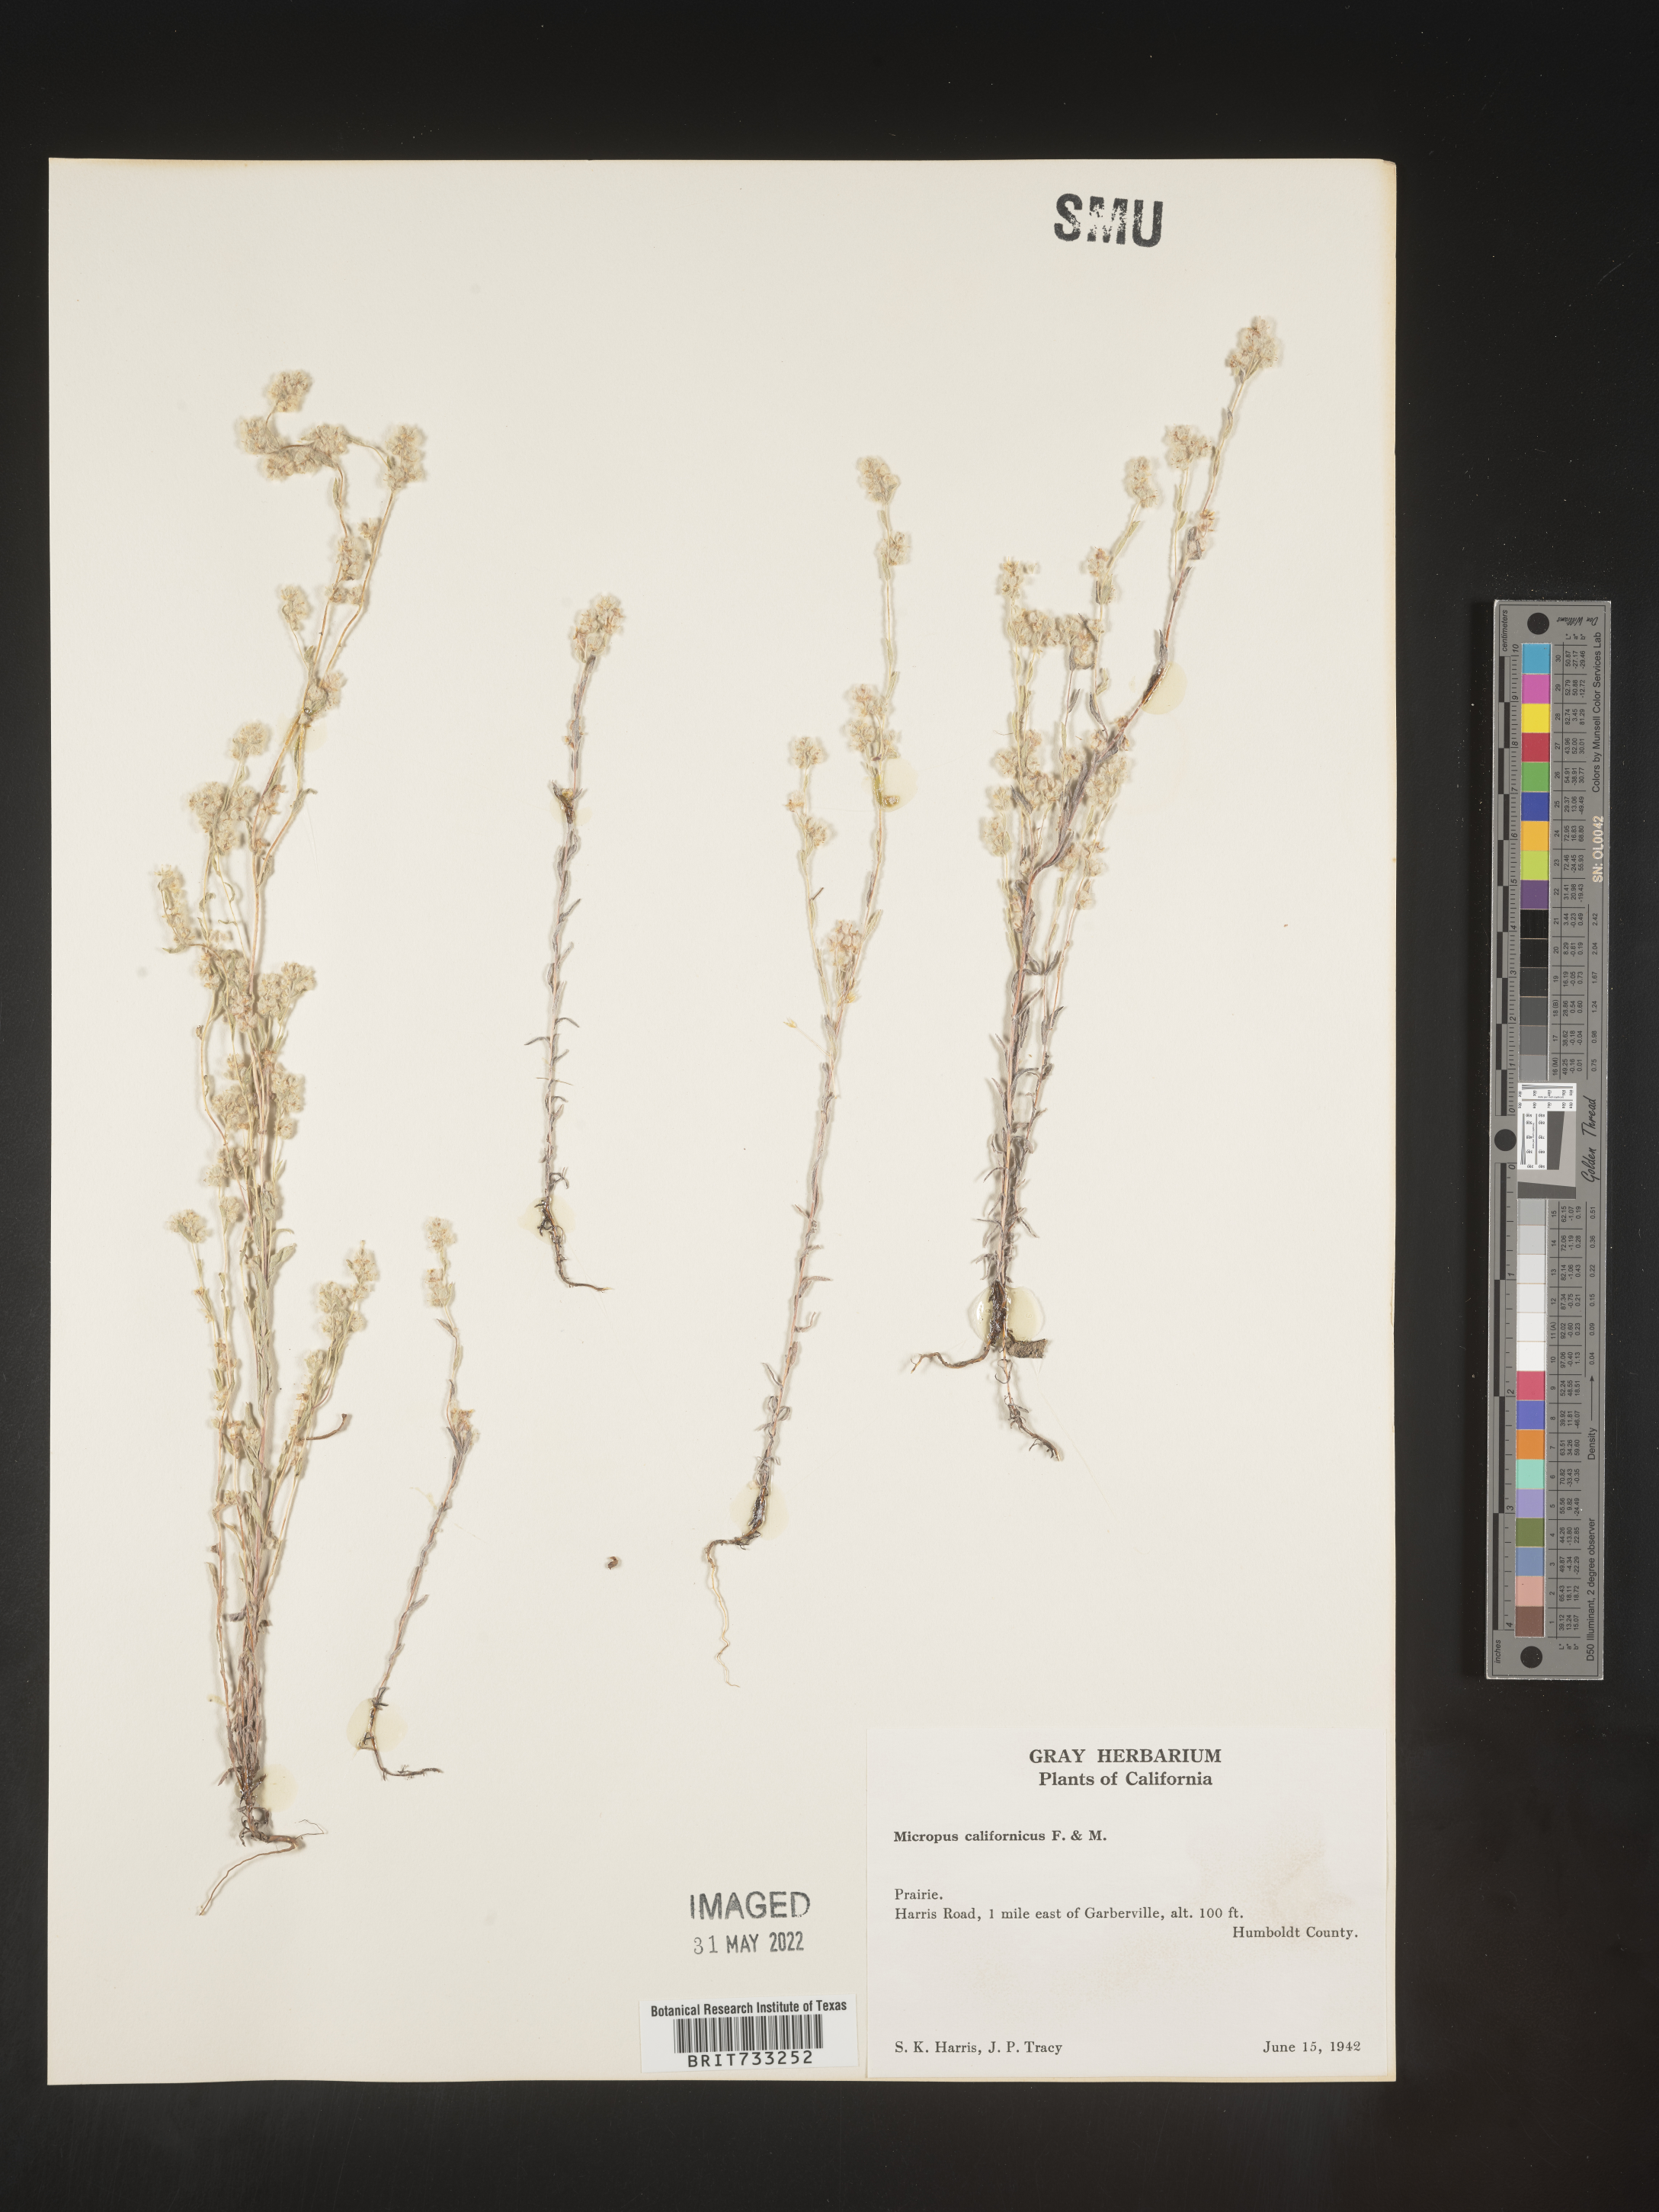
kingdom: Plantae
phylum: Tracheophyta
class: Magnoliopsida
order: Asterales
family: Asteraceae
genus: Micropus
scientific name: Micropus
